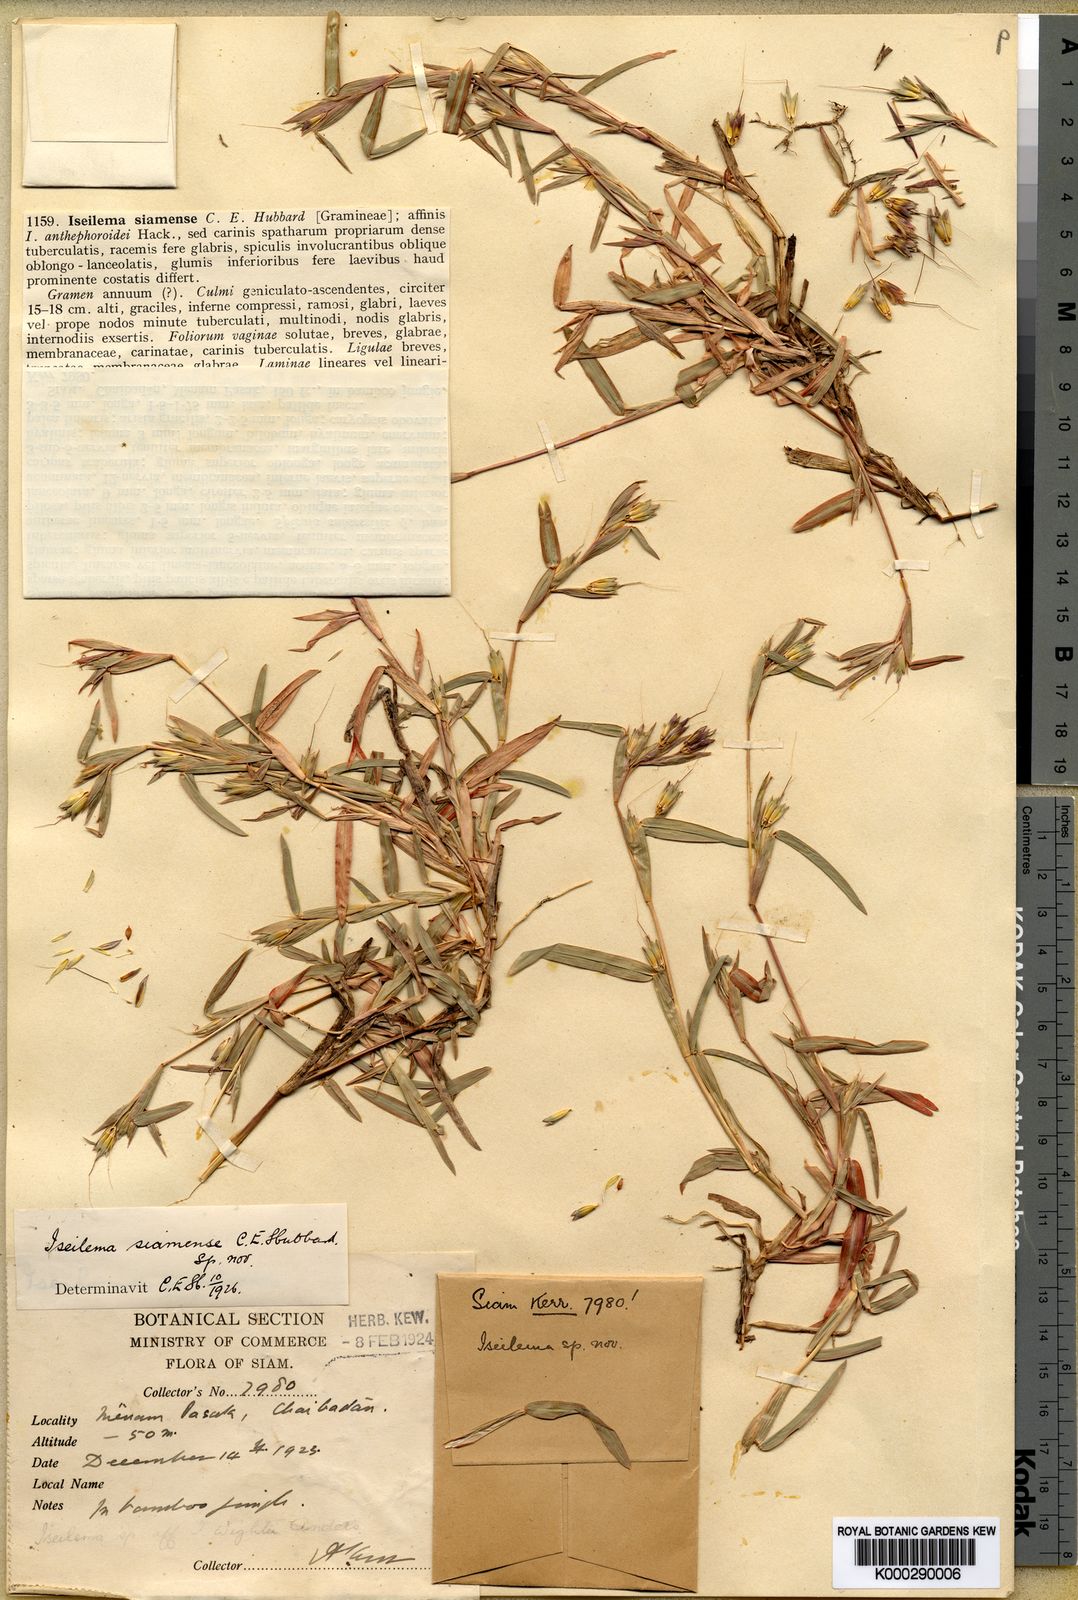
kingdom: Plantae
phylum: Tracheophyta
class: Liliopsida
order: Poales
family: Poaceae
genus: Iseilema
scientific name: Iseilema siamense
